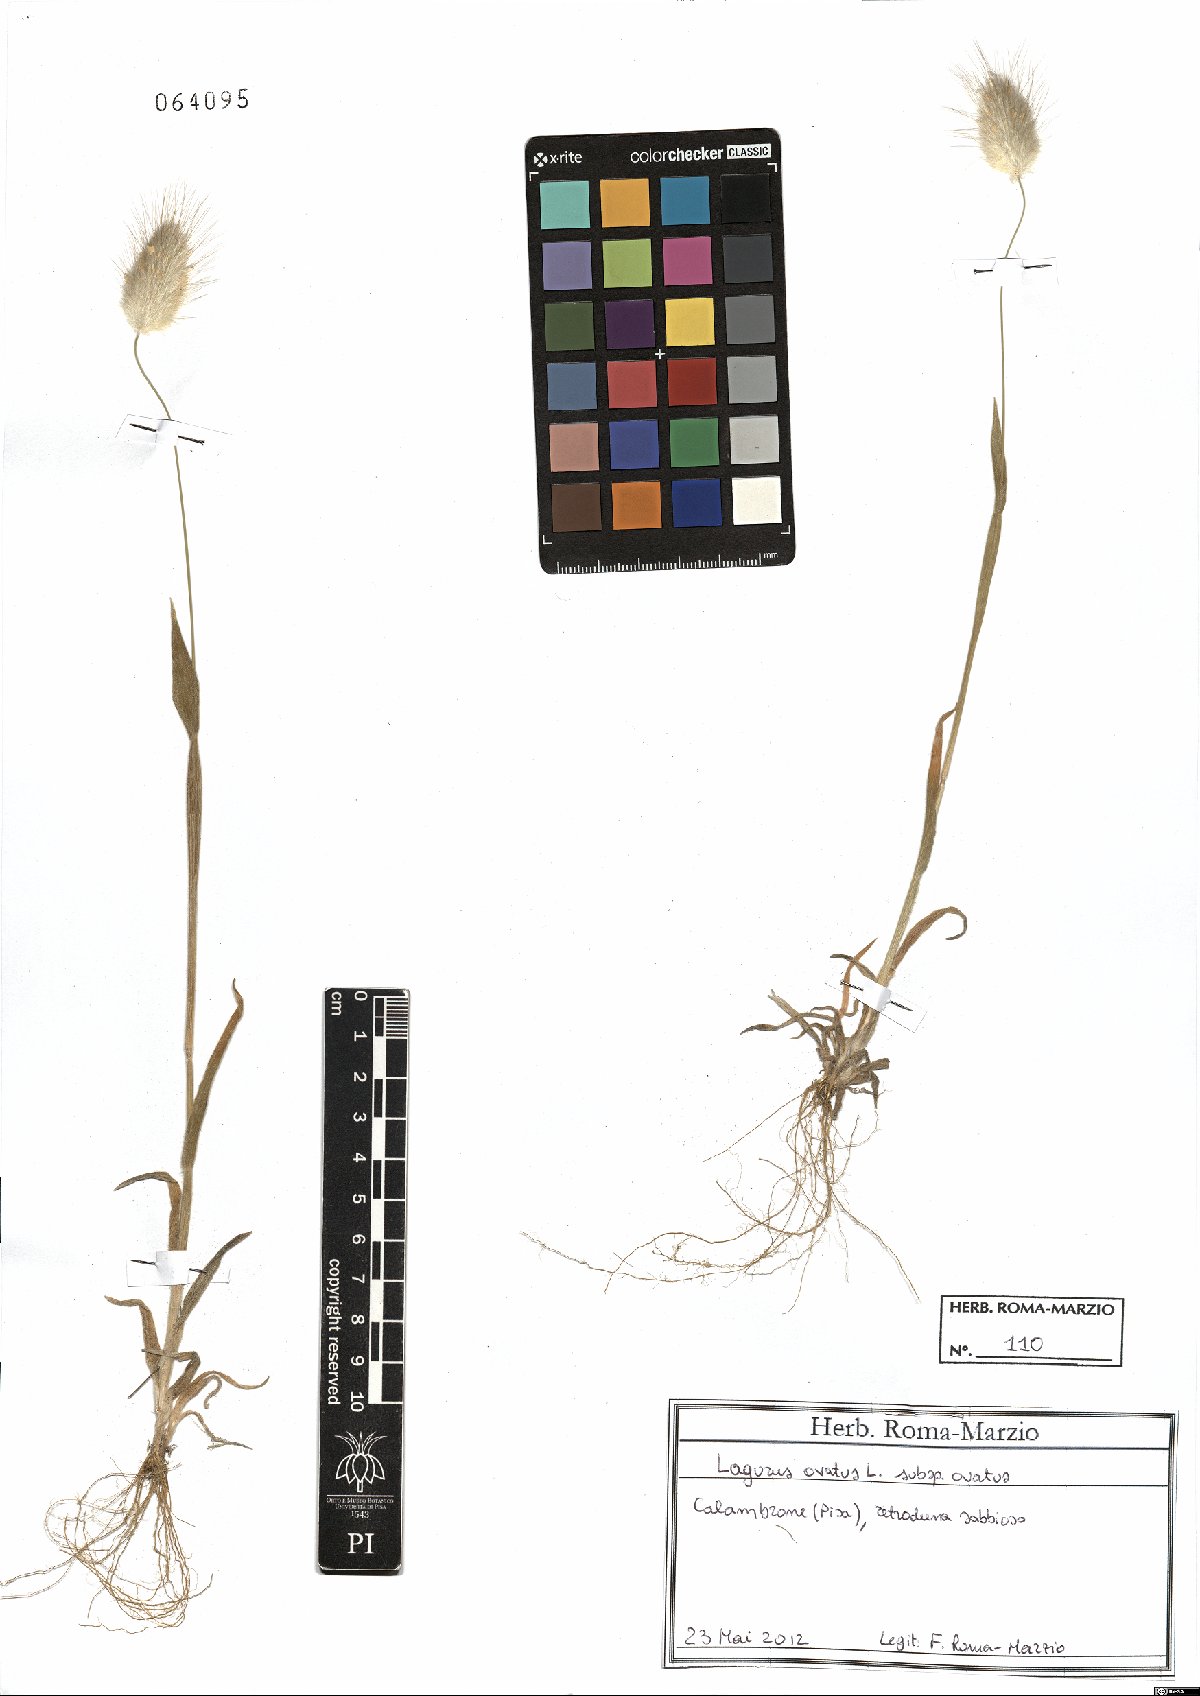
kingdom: Plantae
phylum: Tracheophyta
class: Liliopsida
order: Poales
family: Poaceae
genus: Lagurus
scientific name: Lagurus ovatus
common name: Hare's-tail
